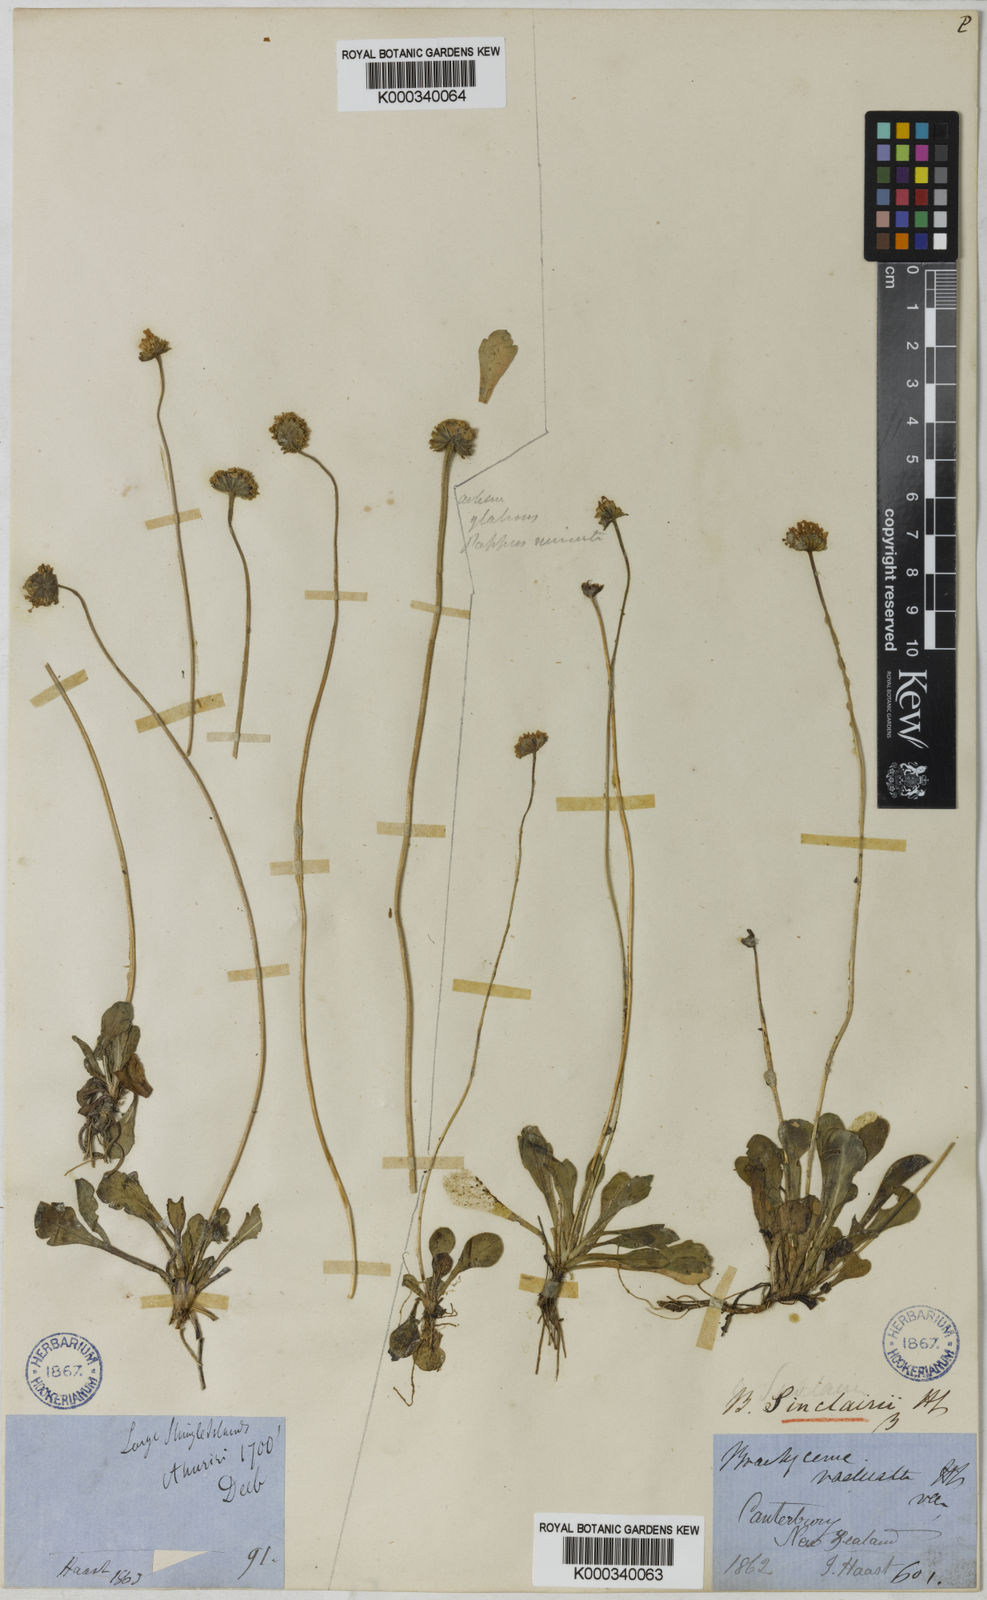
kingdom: Plantae
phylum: Tracheophyta
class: Magnoliopsida
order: Asterales
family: Asteraceae
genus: Brachyscome
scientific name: Brachyscome sinclairii
